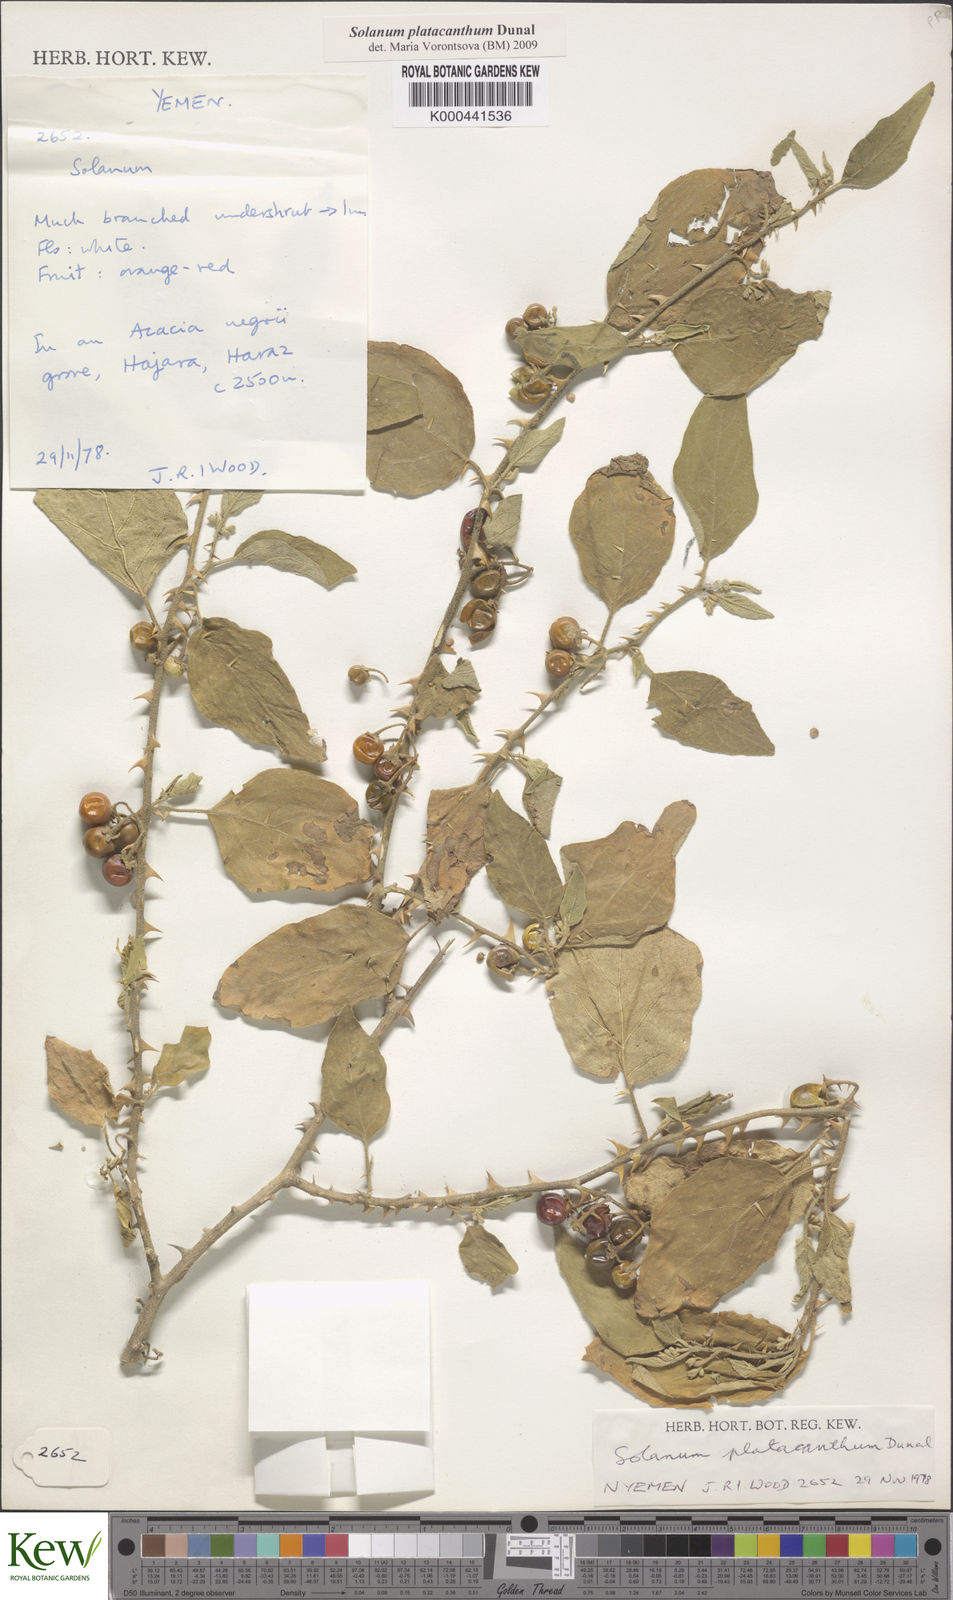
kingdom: Plantae
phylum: Tracheophyta
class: Magnoliopsida
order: Solanales
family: Solanaceae
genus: Solanum
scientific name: Solanum platacanthum
